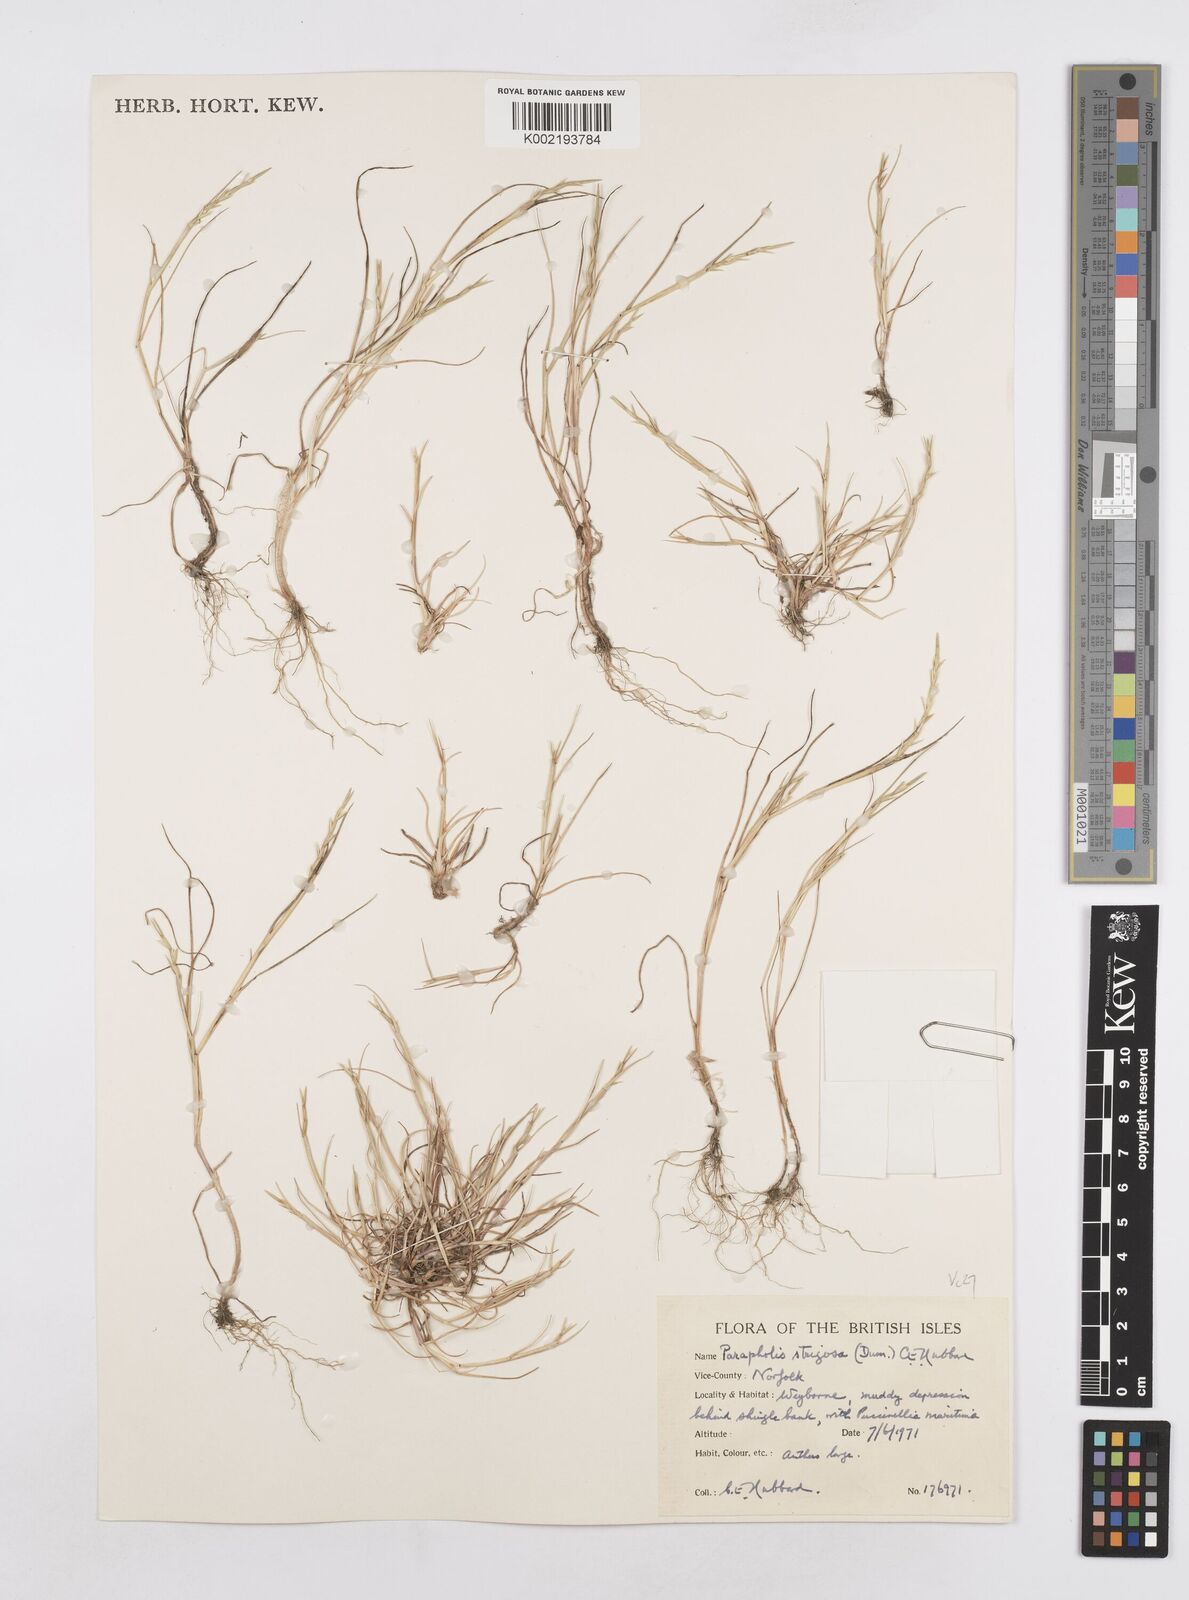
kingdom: Plantae
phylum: Tracheophyta
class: Liliopsida
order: Poales
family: Poaceae
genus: Parapholis
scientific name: Parapholis strigosa
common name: Hard-grass
